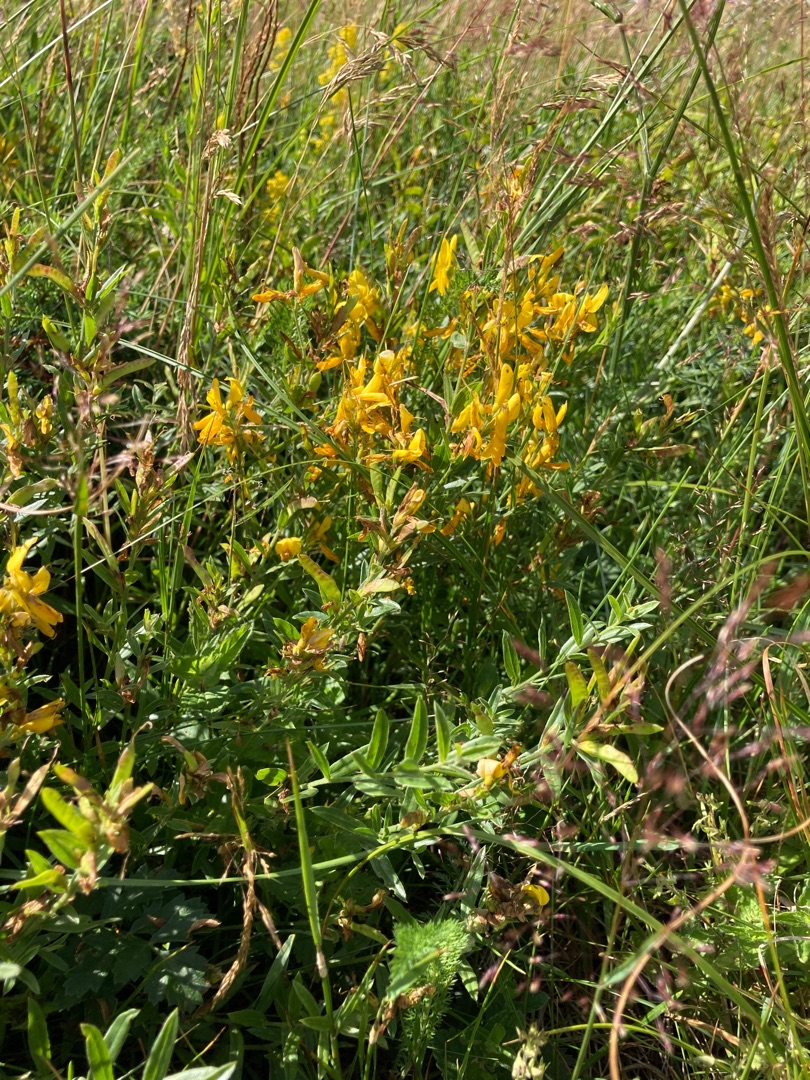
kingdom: Plantae
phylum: Tracheophyta
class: Magnoliopsida
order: Fabales
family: Fabaceae
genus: Genista
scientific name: Genista tinctoria
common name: Farve-visse
